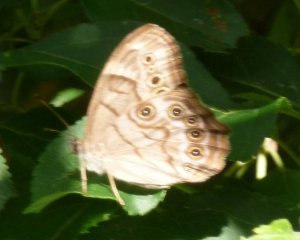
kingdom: Animalia
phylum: Arthropoda
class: Insecta
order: Lepidoptera
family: Nymphalidae
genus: Lethe
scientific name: Lethe anthedon
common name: Northern Pearly-Eye
